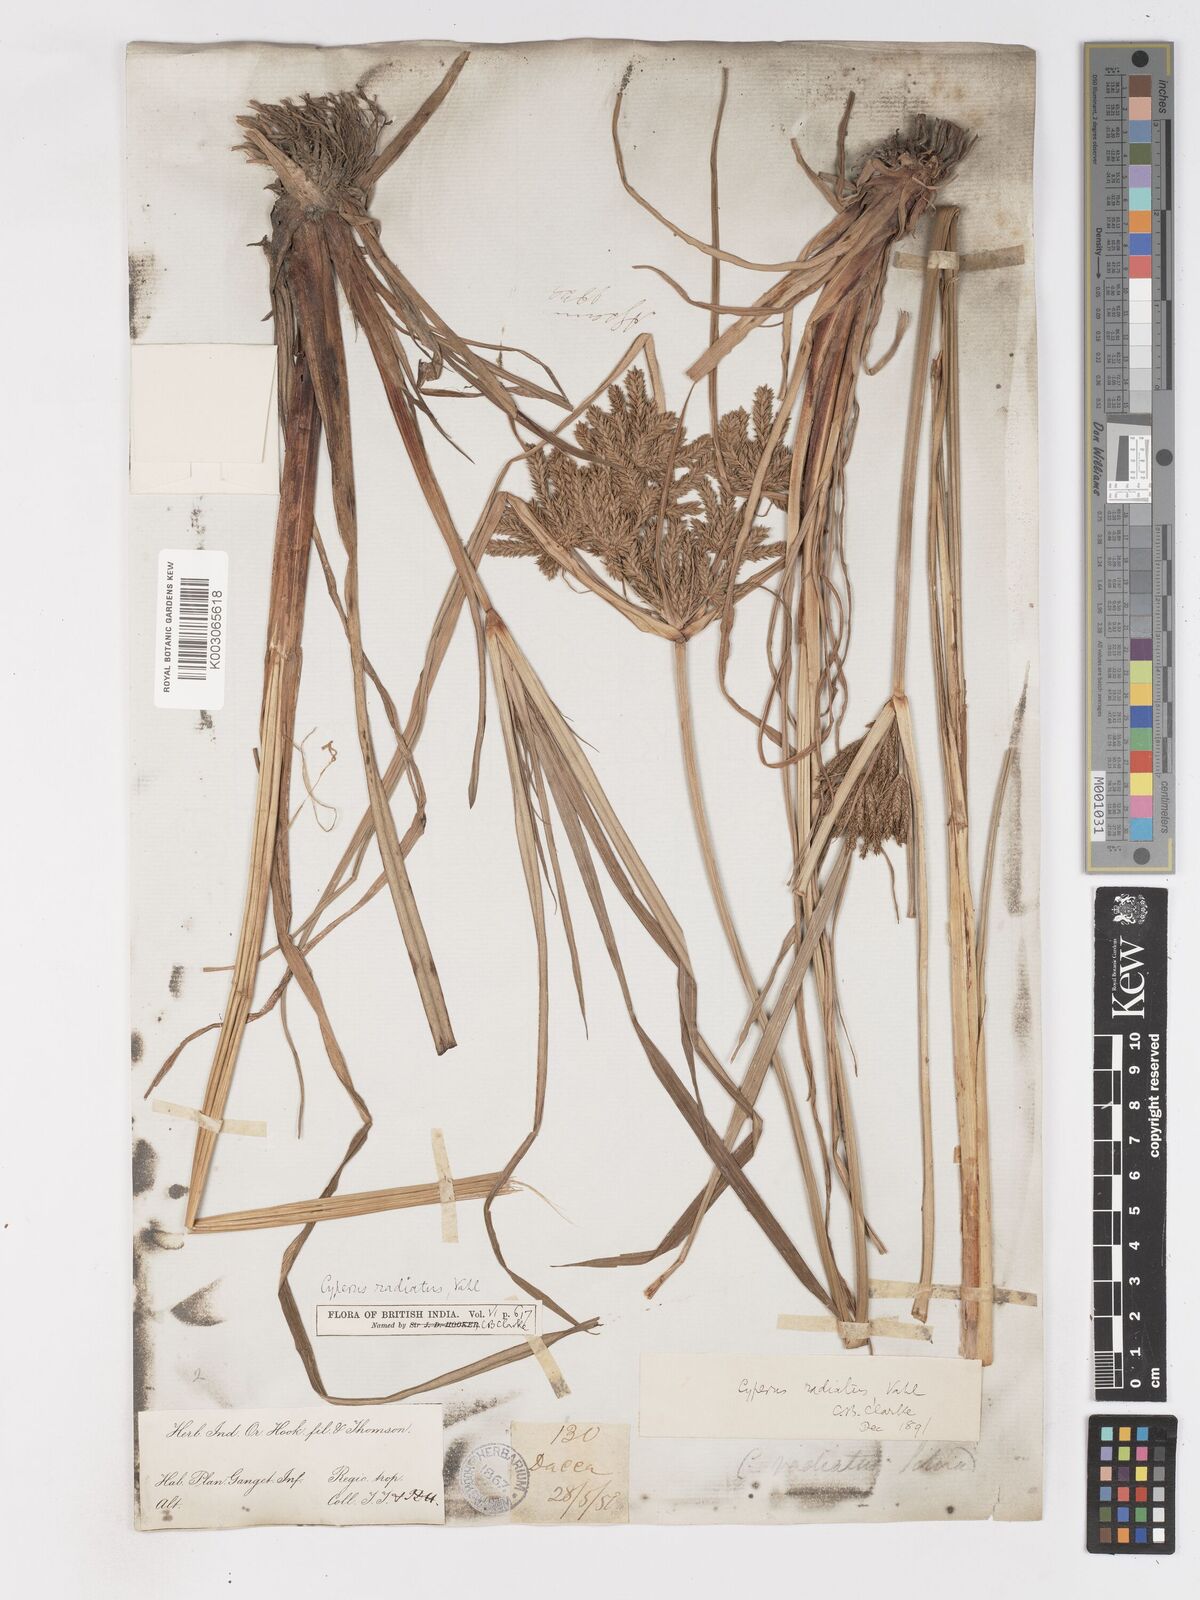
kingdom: Plantae
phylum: Tracheophyta
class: Liliopsida
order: Poales
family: Cyperaceae
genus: Cyperus
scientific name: Cyperus imbricatus
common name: Shingle flatsedge
